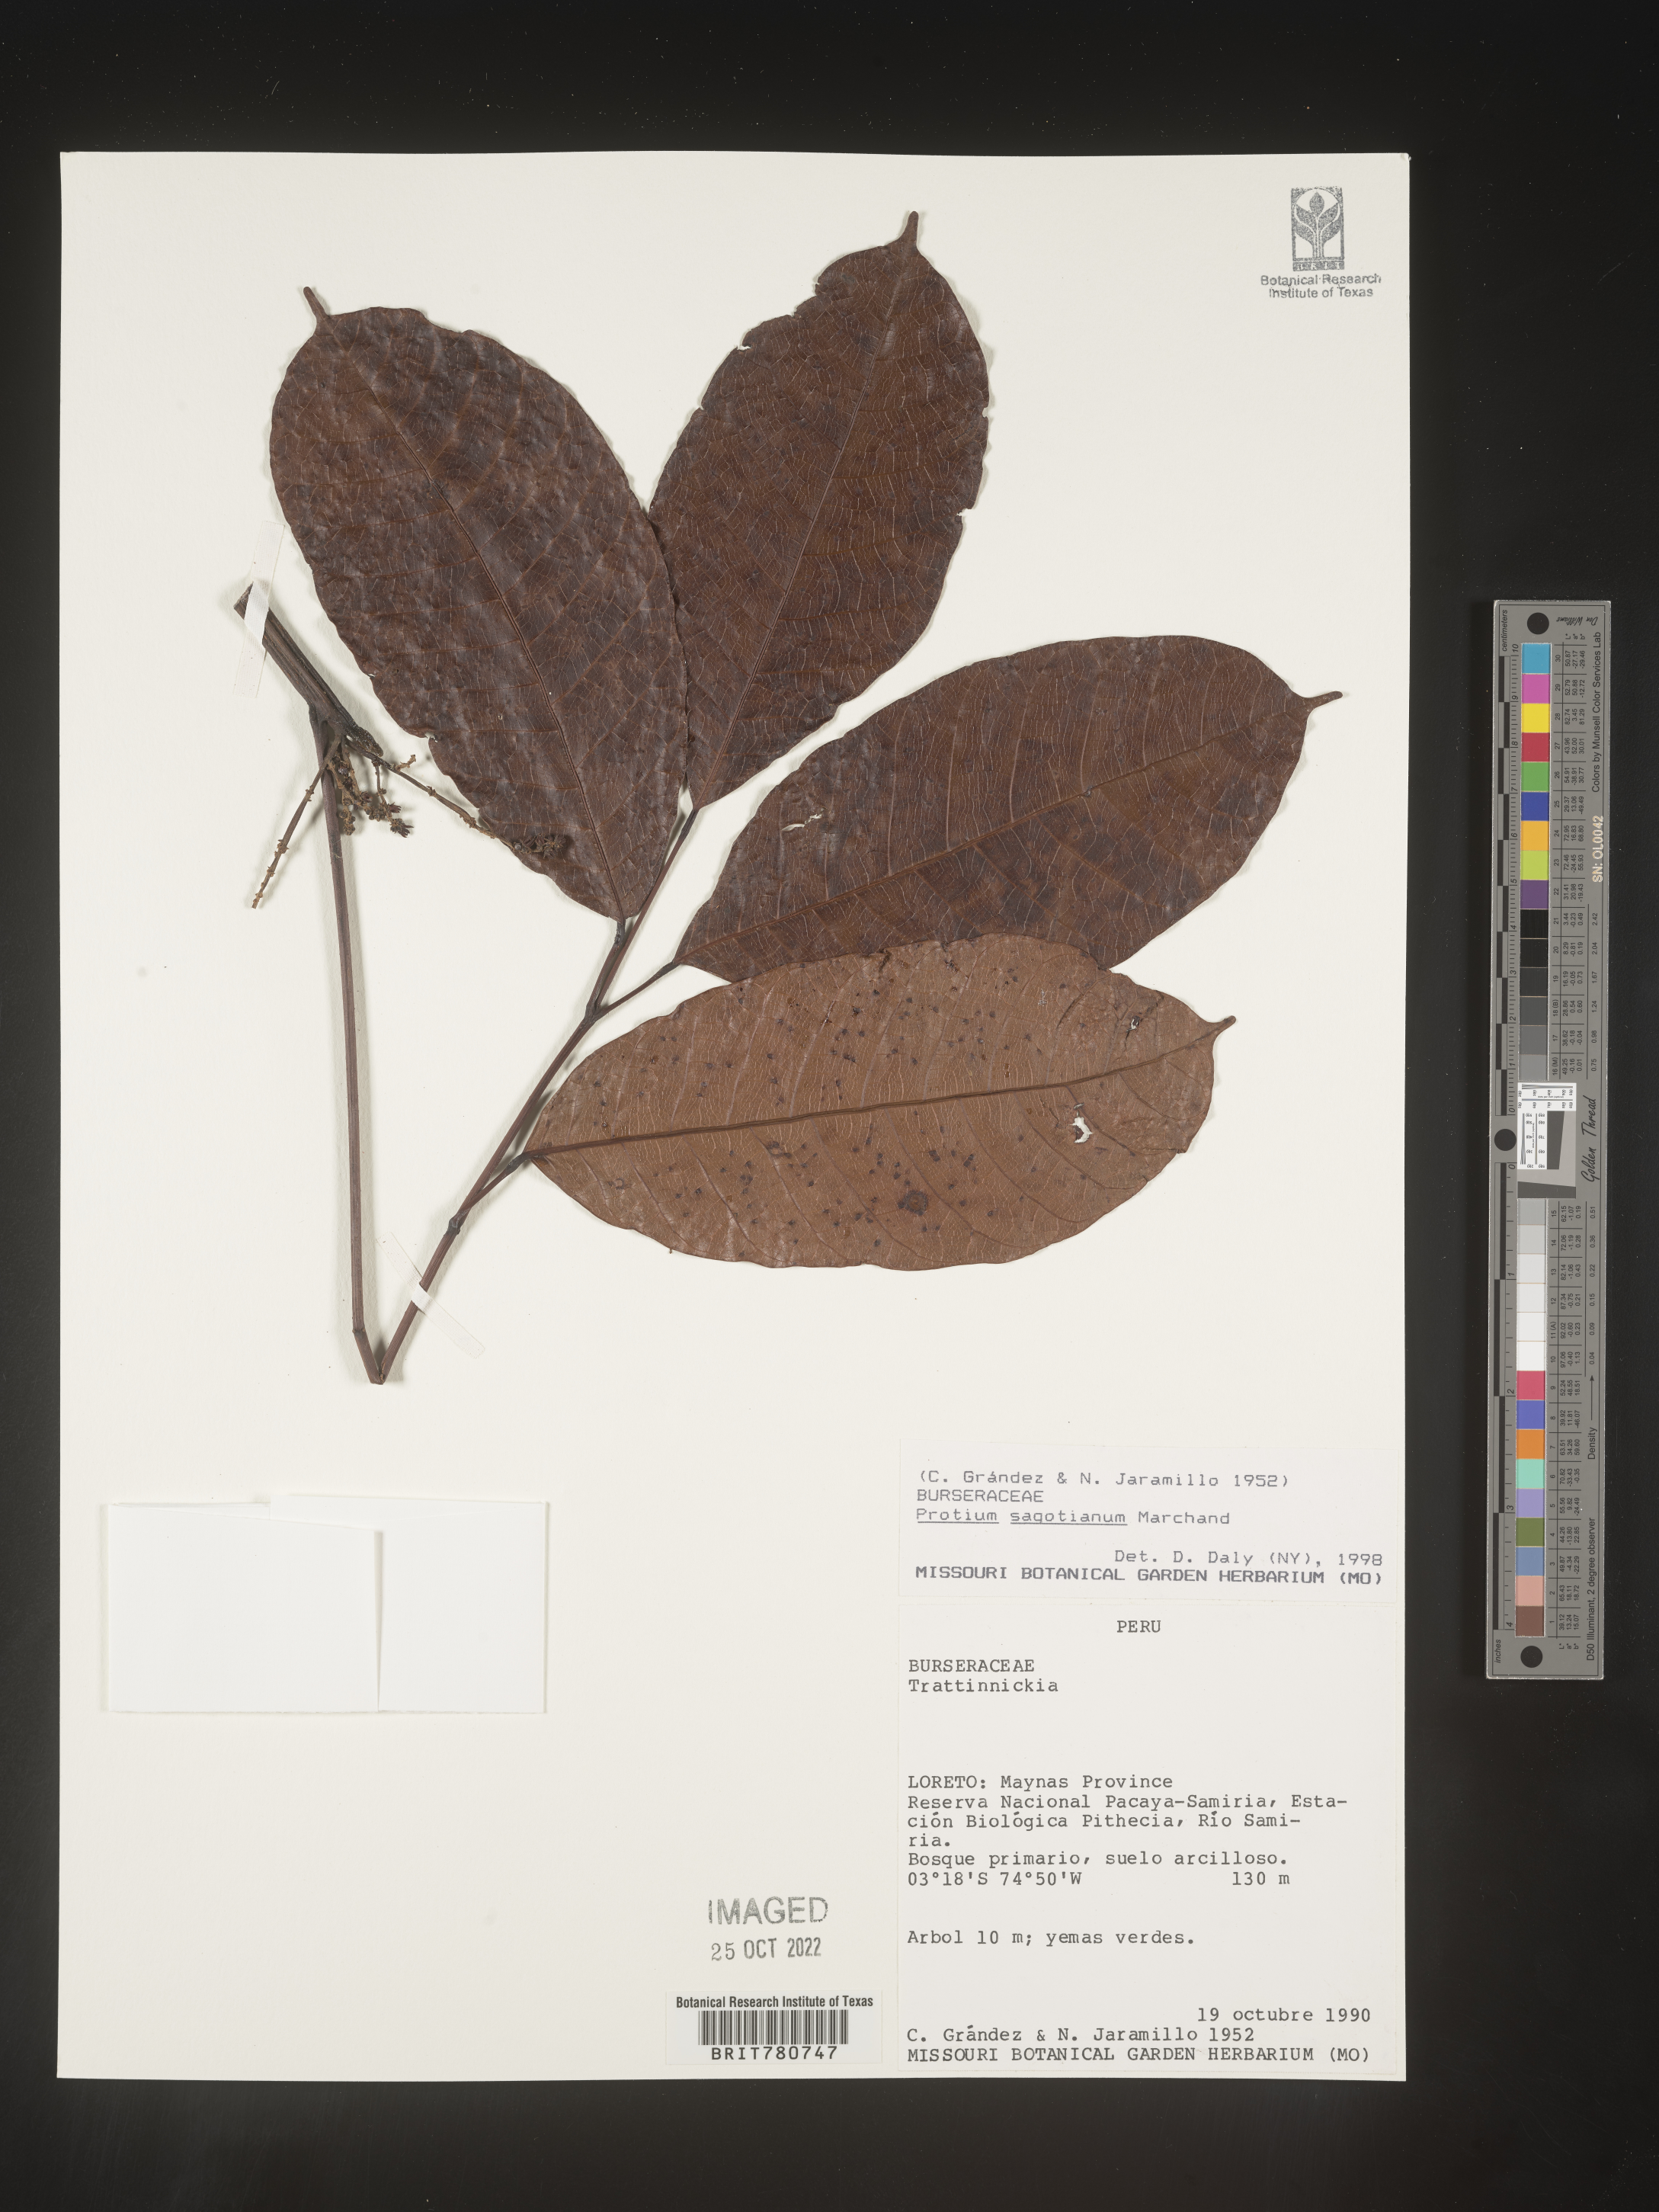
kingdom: Plantae
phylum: Tracheophyta
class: Magnoliopsida
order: Sapindales
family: Burseraceae
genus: Protium
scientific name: Protium
